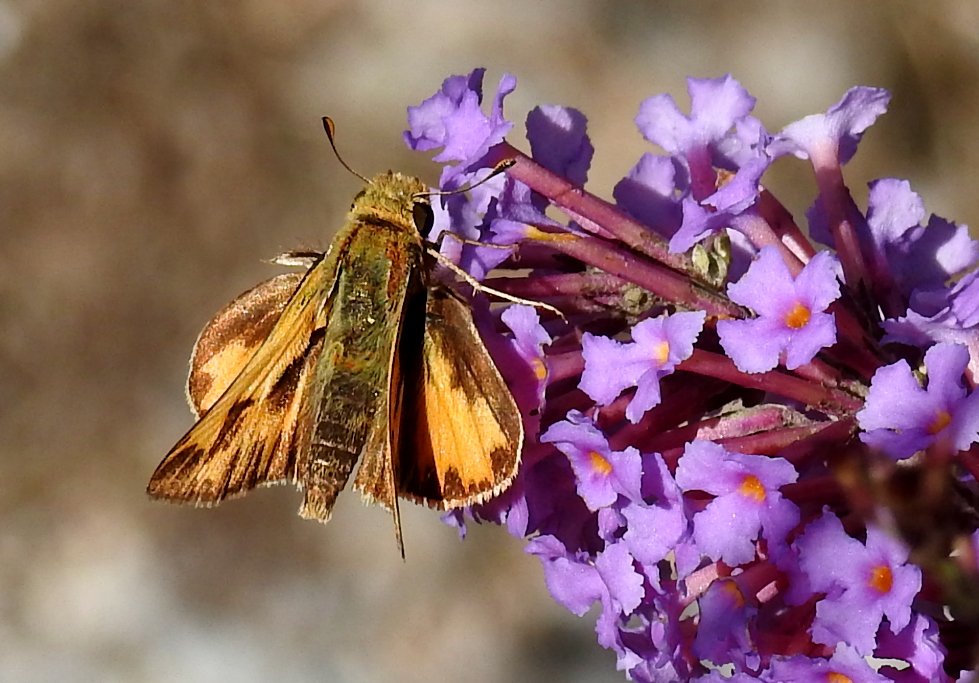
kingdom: Animalia
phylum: Arthropoda
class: Insecta
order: Lepidoptera
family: Hesperiidae
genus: Hylephila
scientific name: Hylephila phyleus
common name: Fiery Skipper
